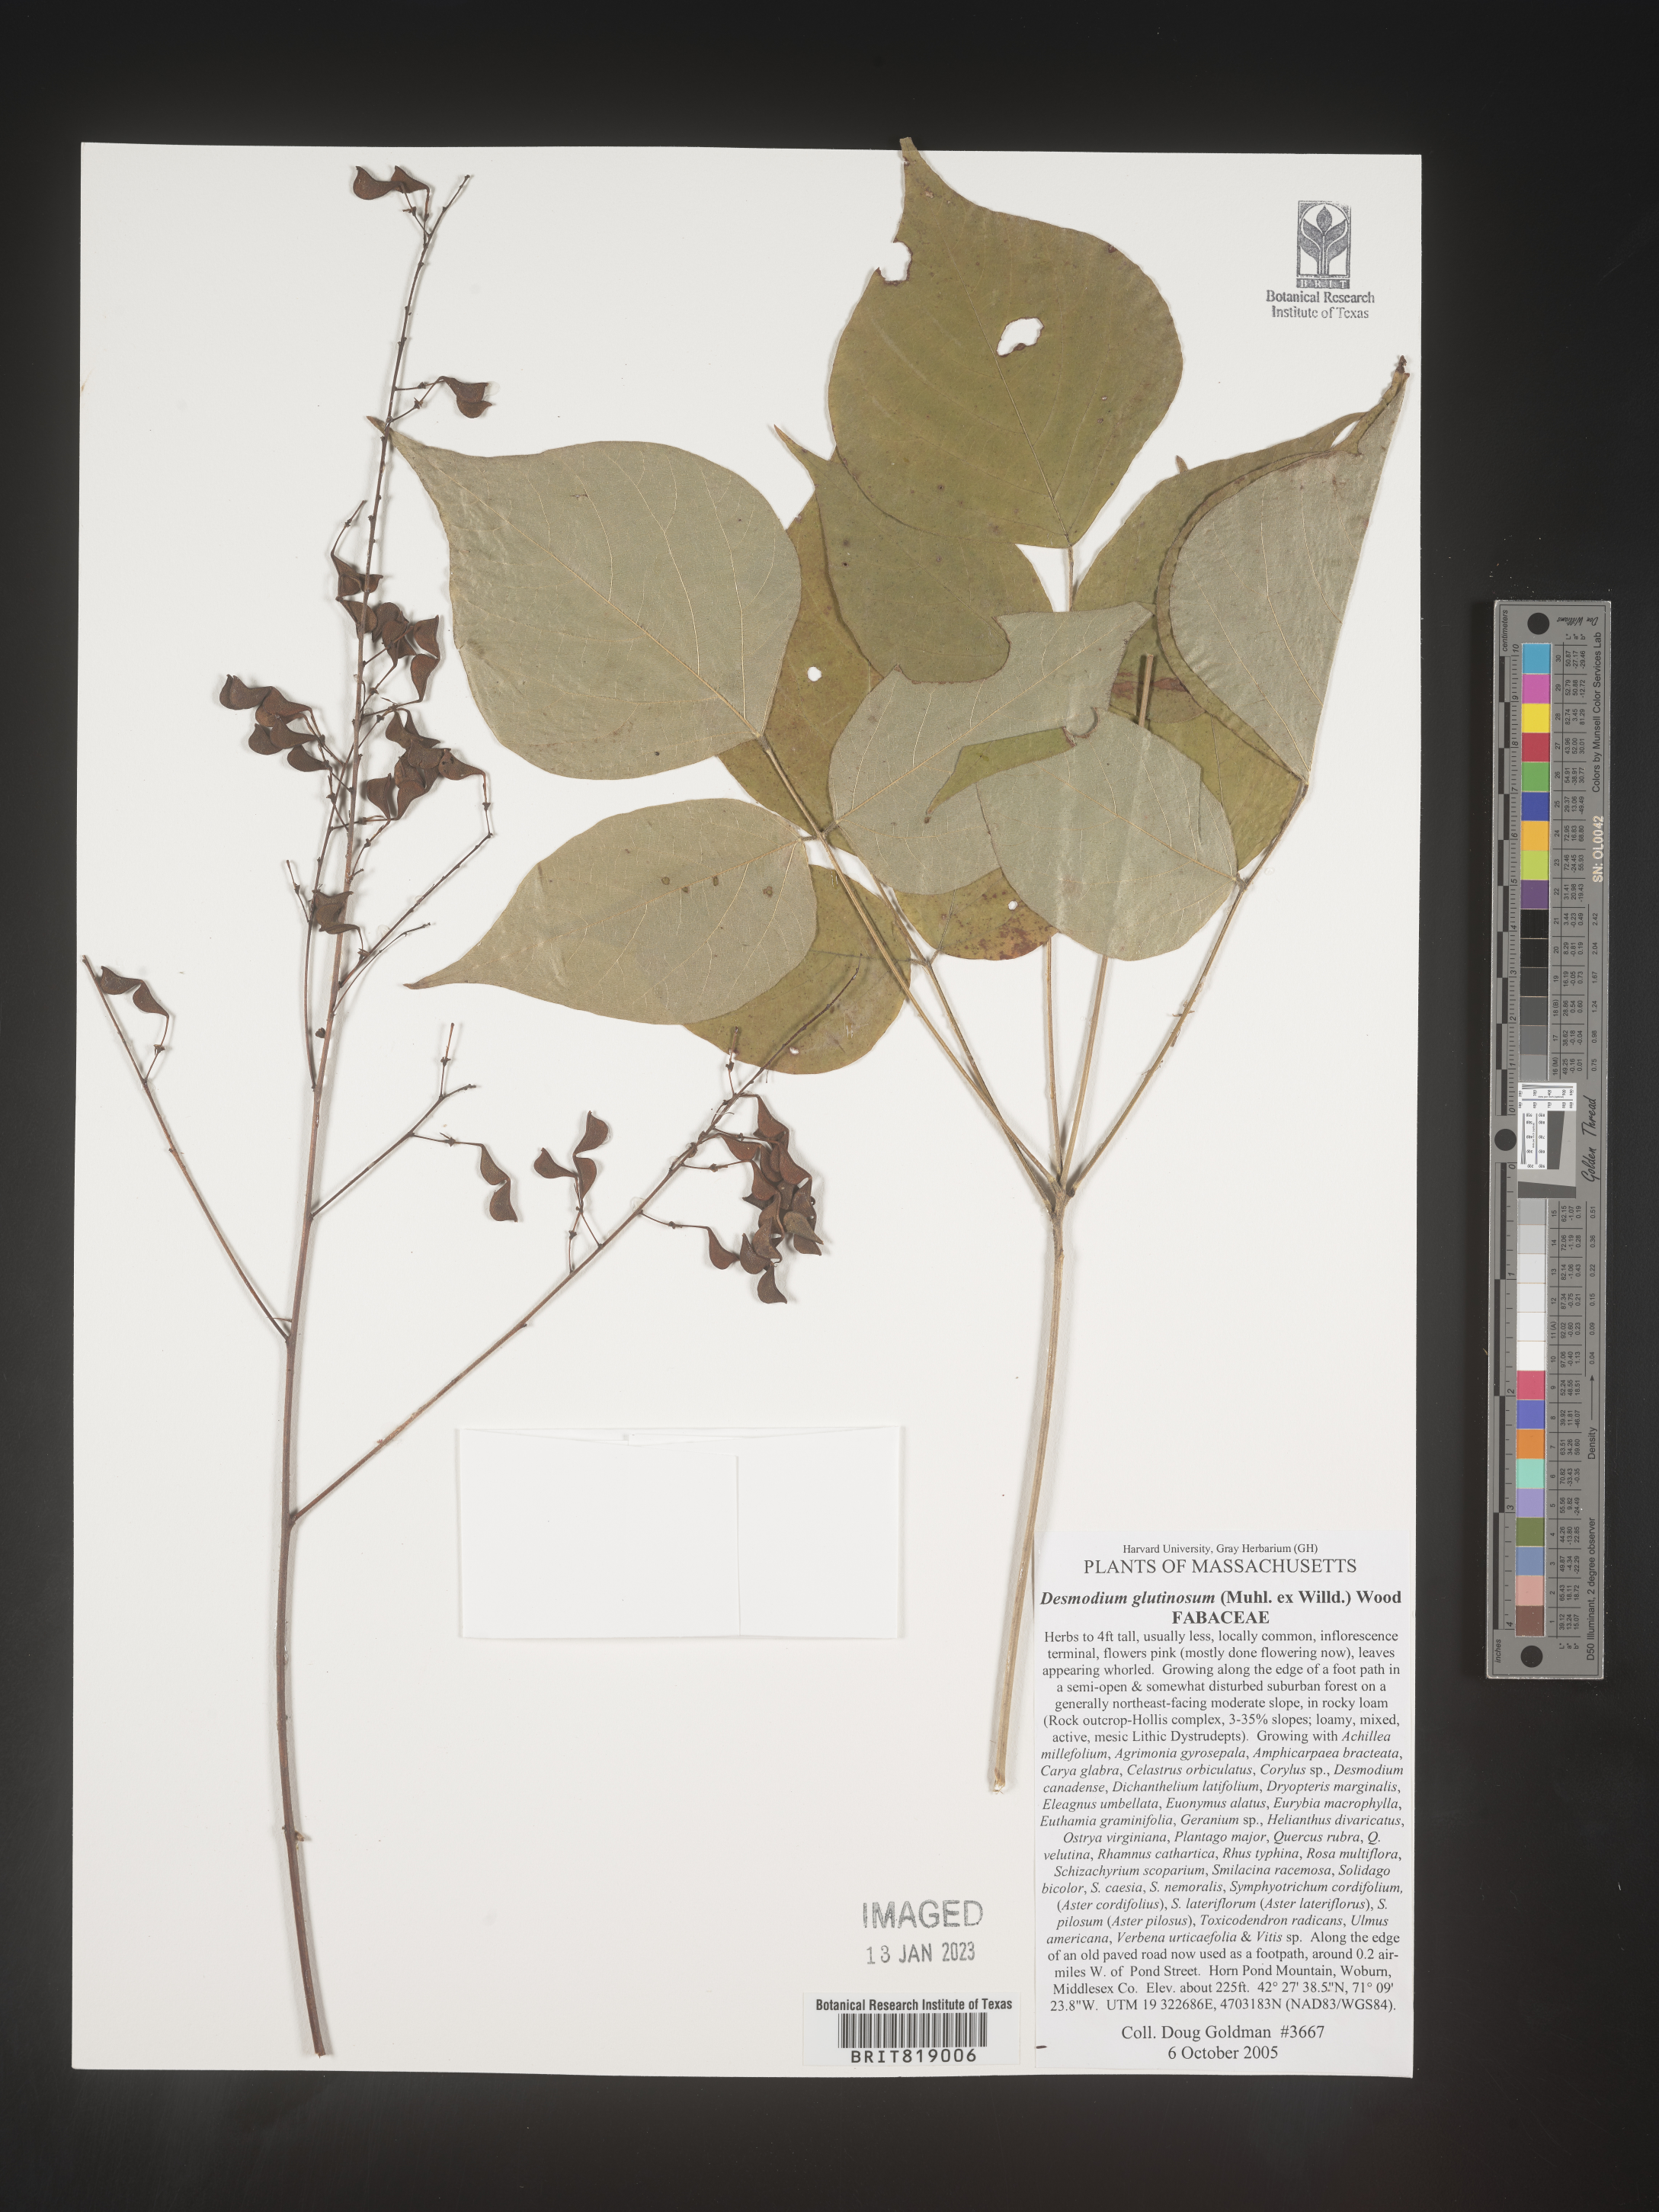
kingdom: Plantae
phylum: Tracheophyta
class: Magnoliopsida
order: Fabales
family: Fabaceae
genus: Hylodesmum
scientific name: Hylodesmum glutinosum
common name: Clustered-leaved tick-trefoil
